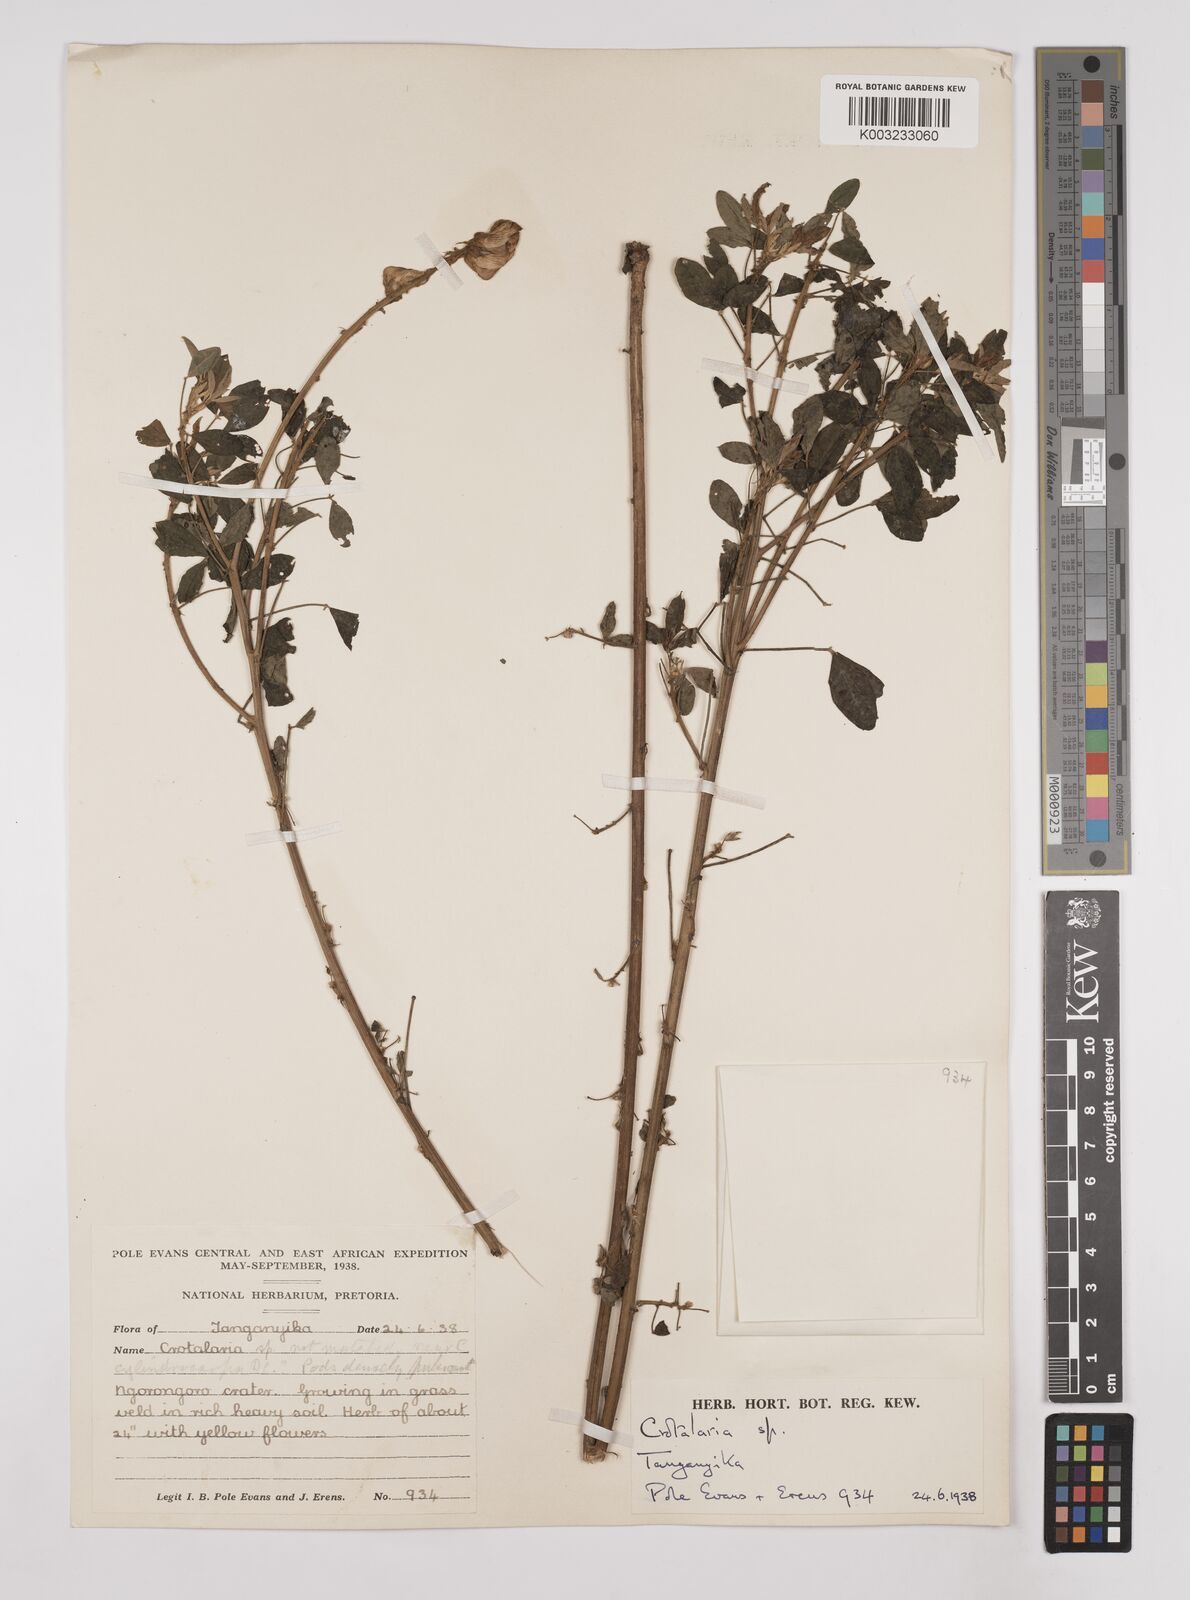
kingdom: Plantae
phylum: Tracheophyta
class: Magnoliopsida
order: Fabales
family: Fabaceae
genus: Crotalaria
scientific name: Crotalaria keniensis
